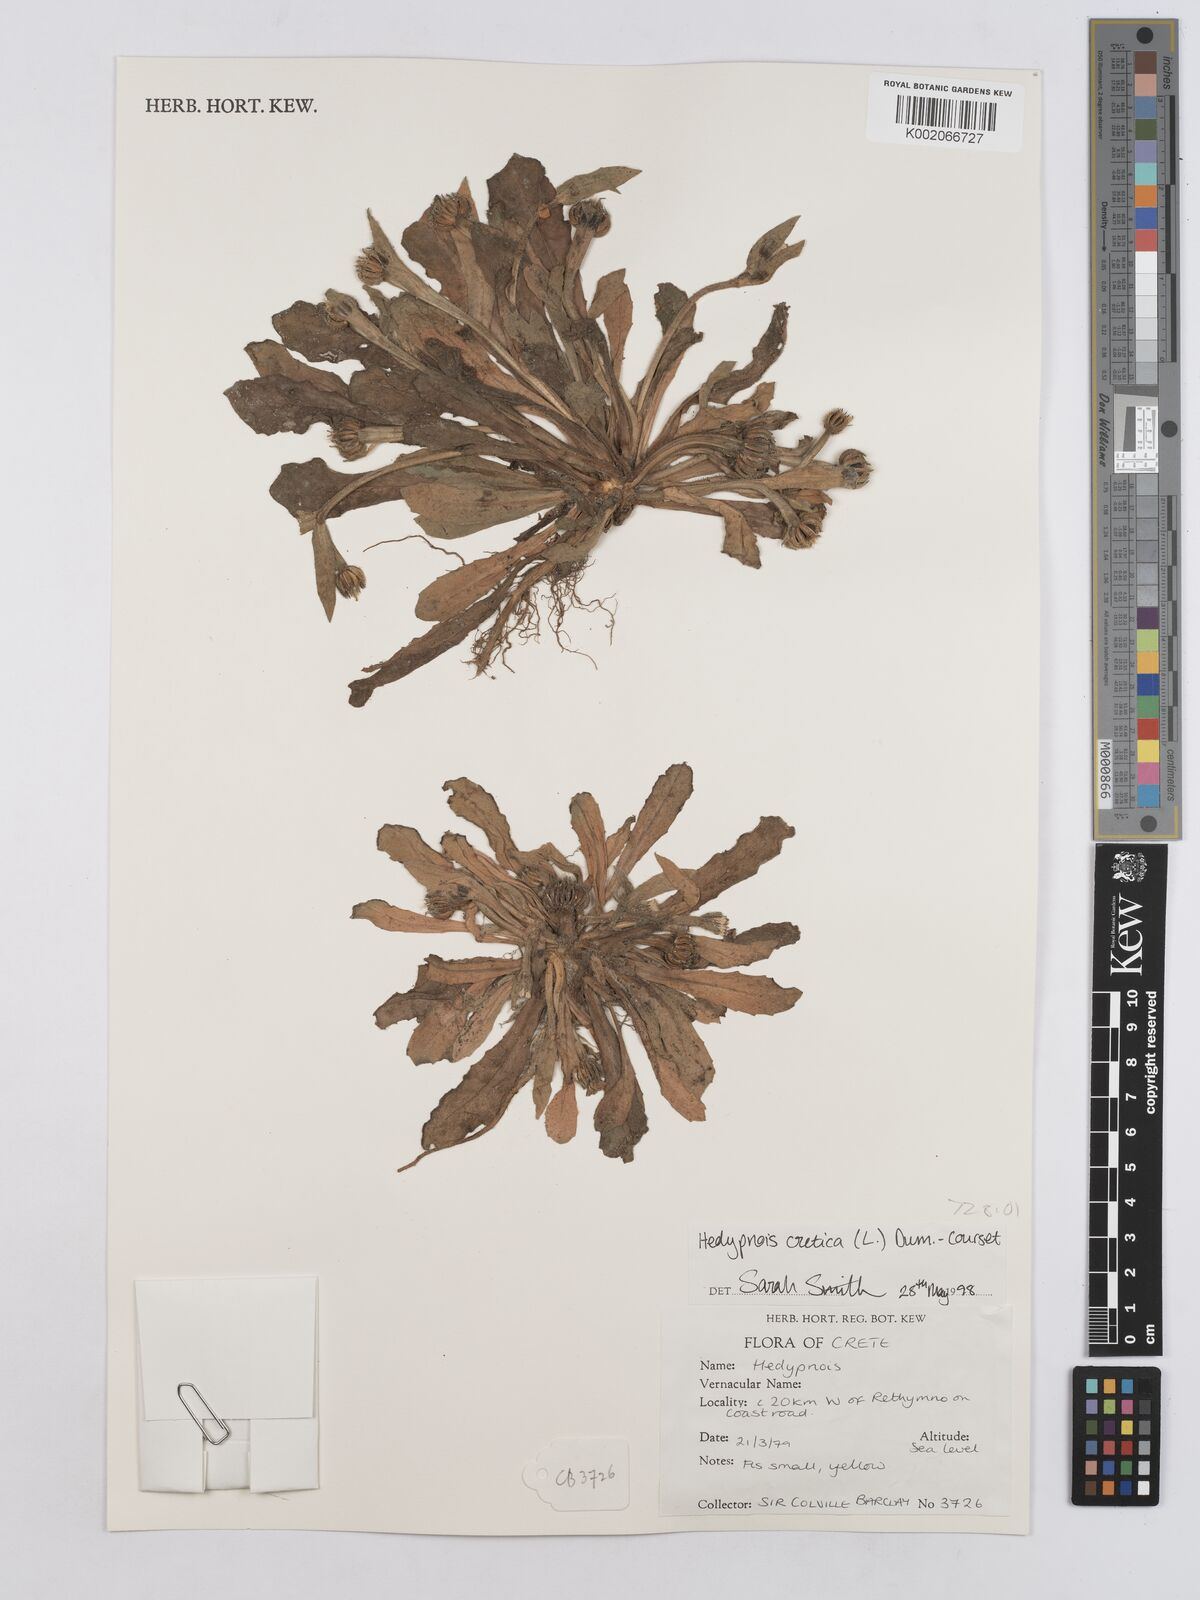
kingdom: Plantae
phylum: Tracheophyta
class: Magnoliopsida
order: Asterales
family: Asteraceae
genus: Hedypnois
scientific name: Hedypnois cretica
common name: Scaly hawkbit
